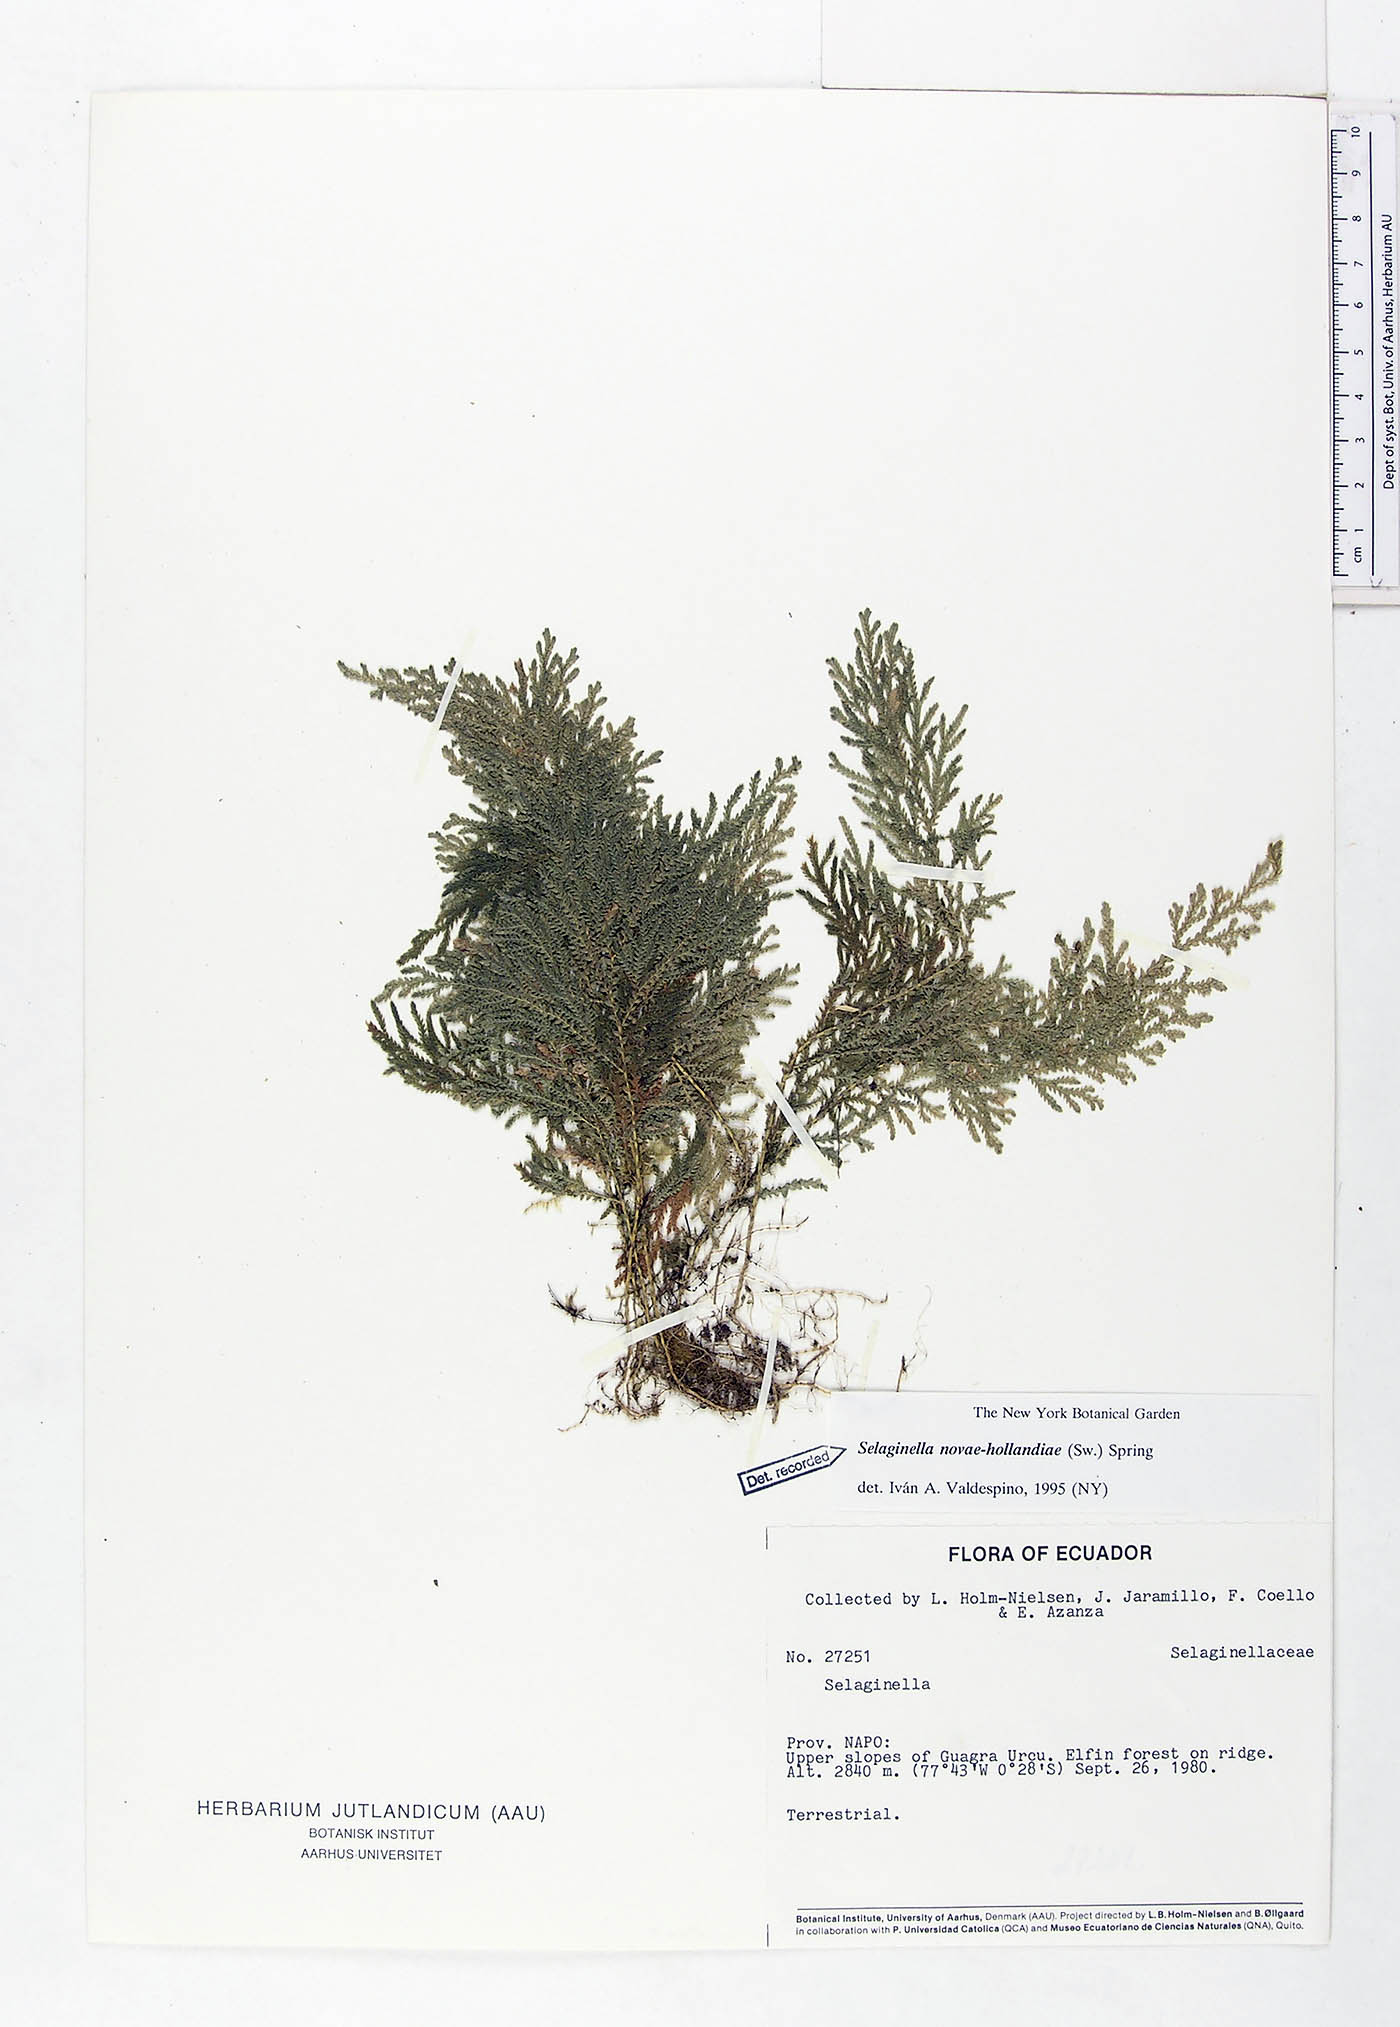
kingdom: Plantae
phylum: Tracheophyta
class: Lycopodiopsida
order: Selaginellales
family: Selaginellaceae
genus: Selaginella
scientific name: Selaginella novae-hollandiae
